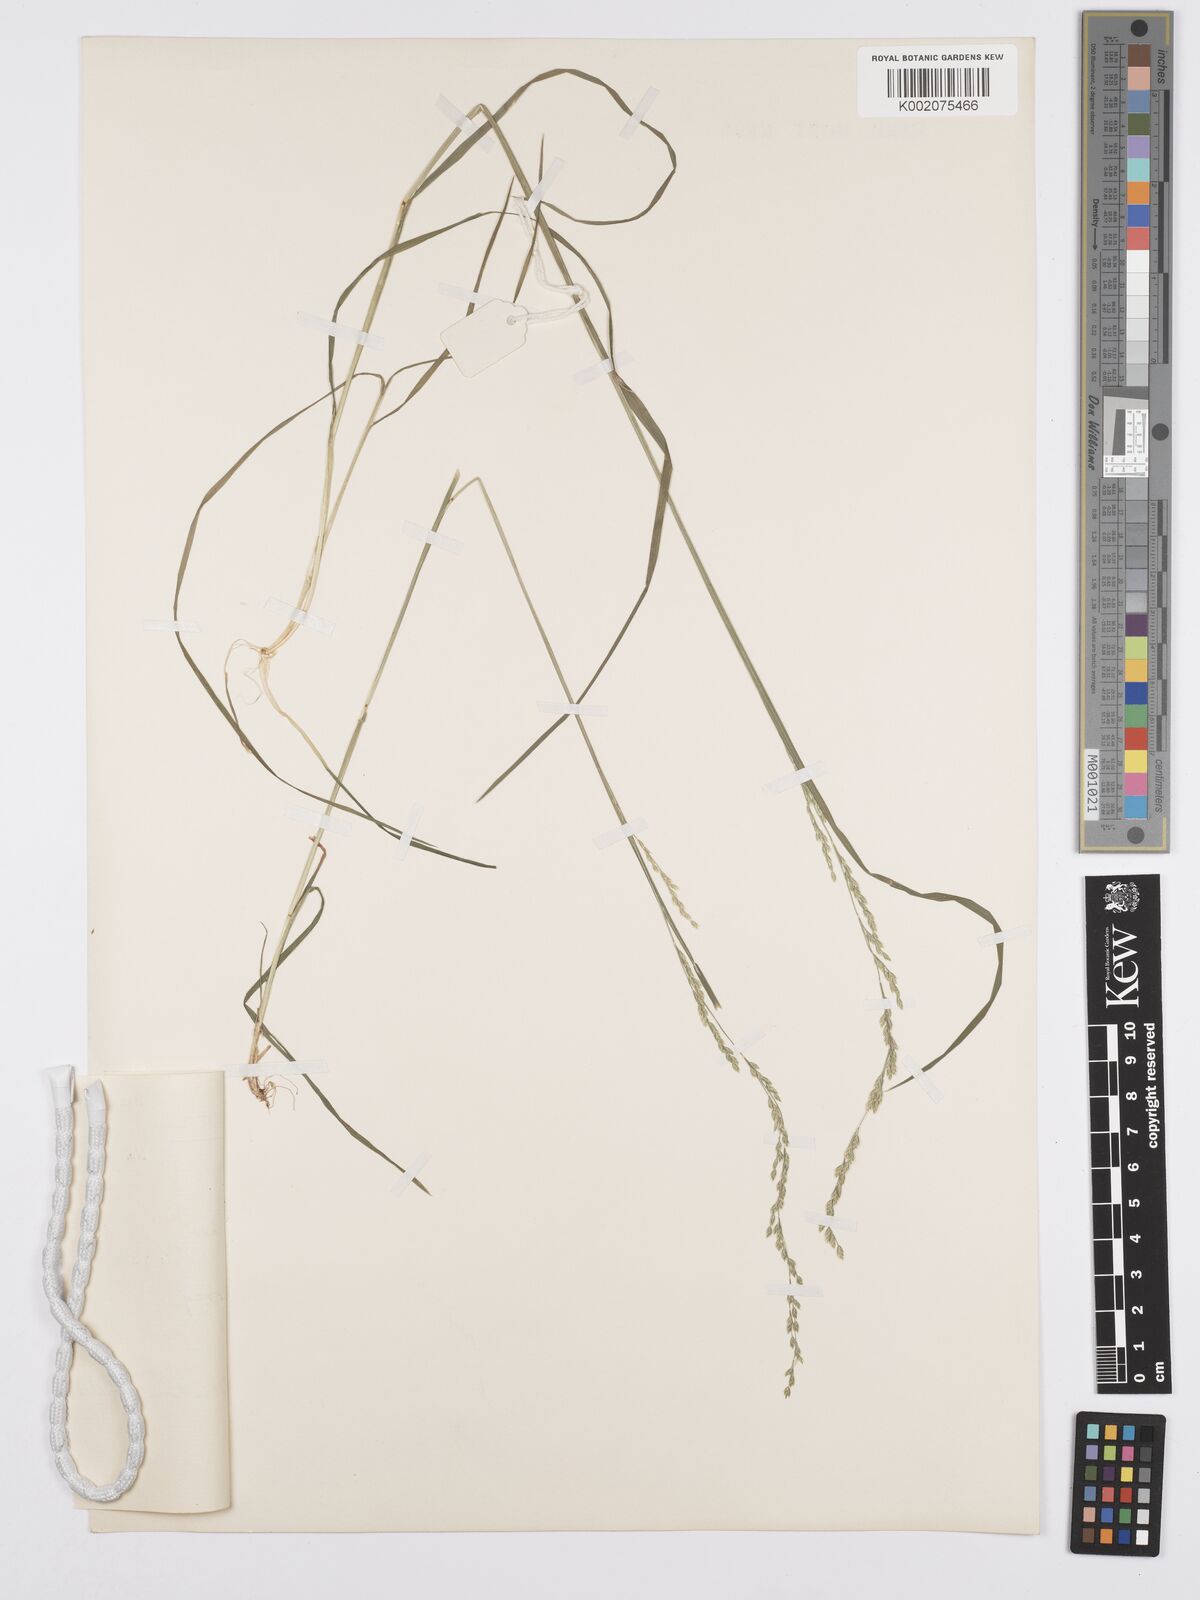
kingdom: Plantae
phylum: Tracheophyta
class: Liliopsida
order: Poales
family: Poaceae
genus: Poa
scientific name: Poa leptoclada
